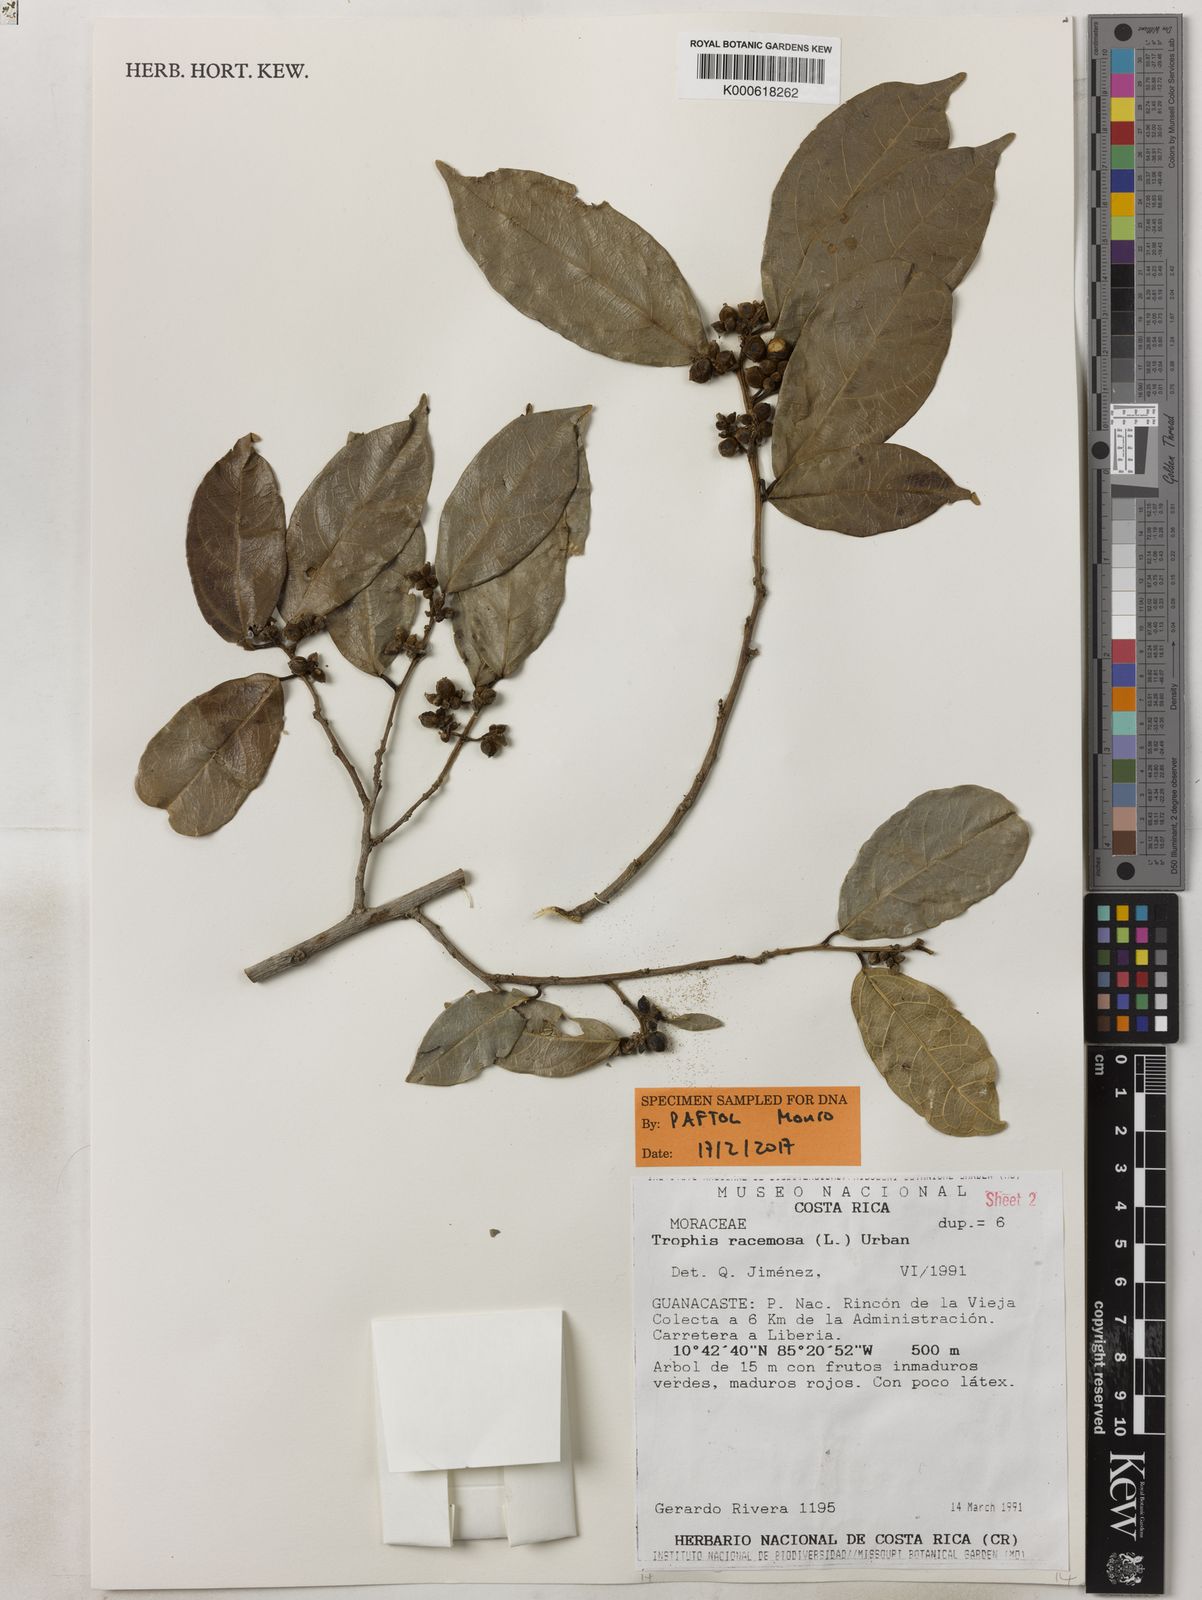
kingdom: Plantae
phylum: Tracheophyta
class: Magnoliopsida
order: Rosales
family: Moraceae
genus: Trophis
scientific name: Trophis racemosa
